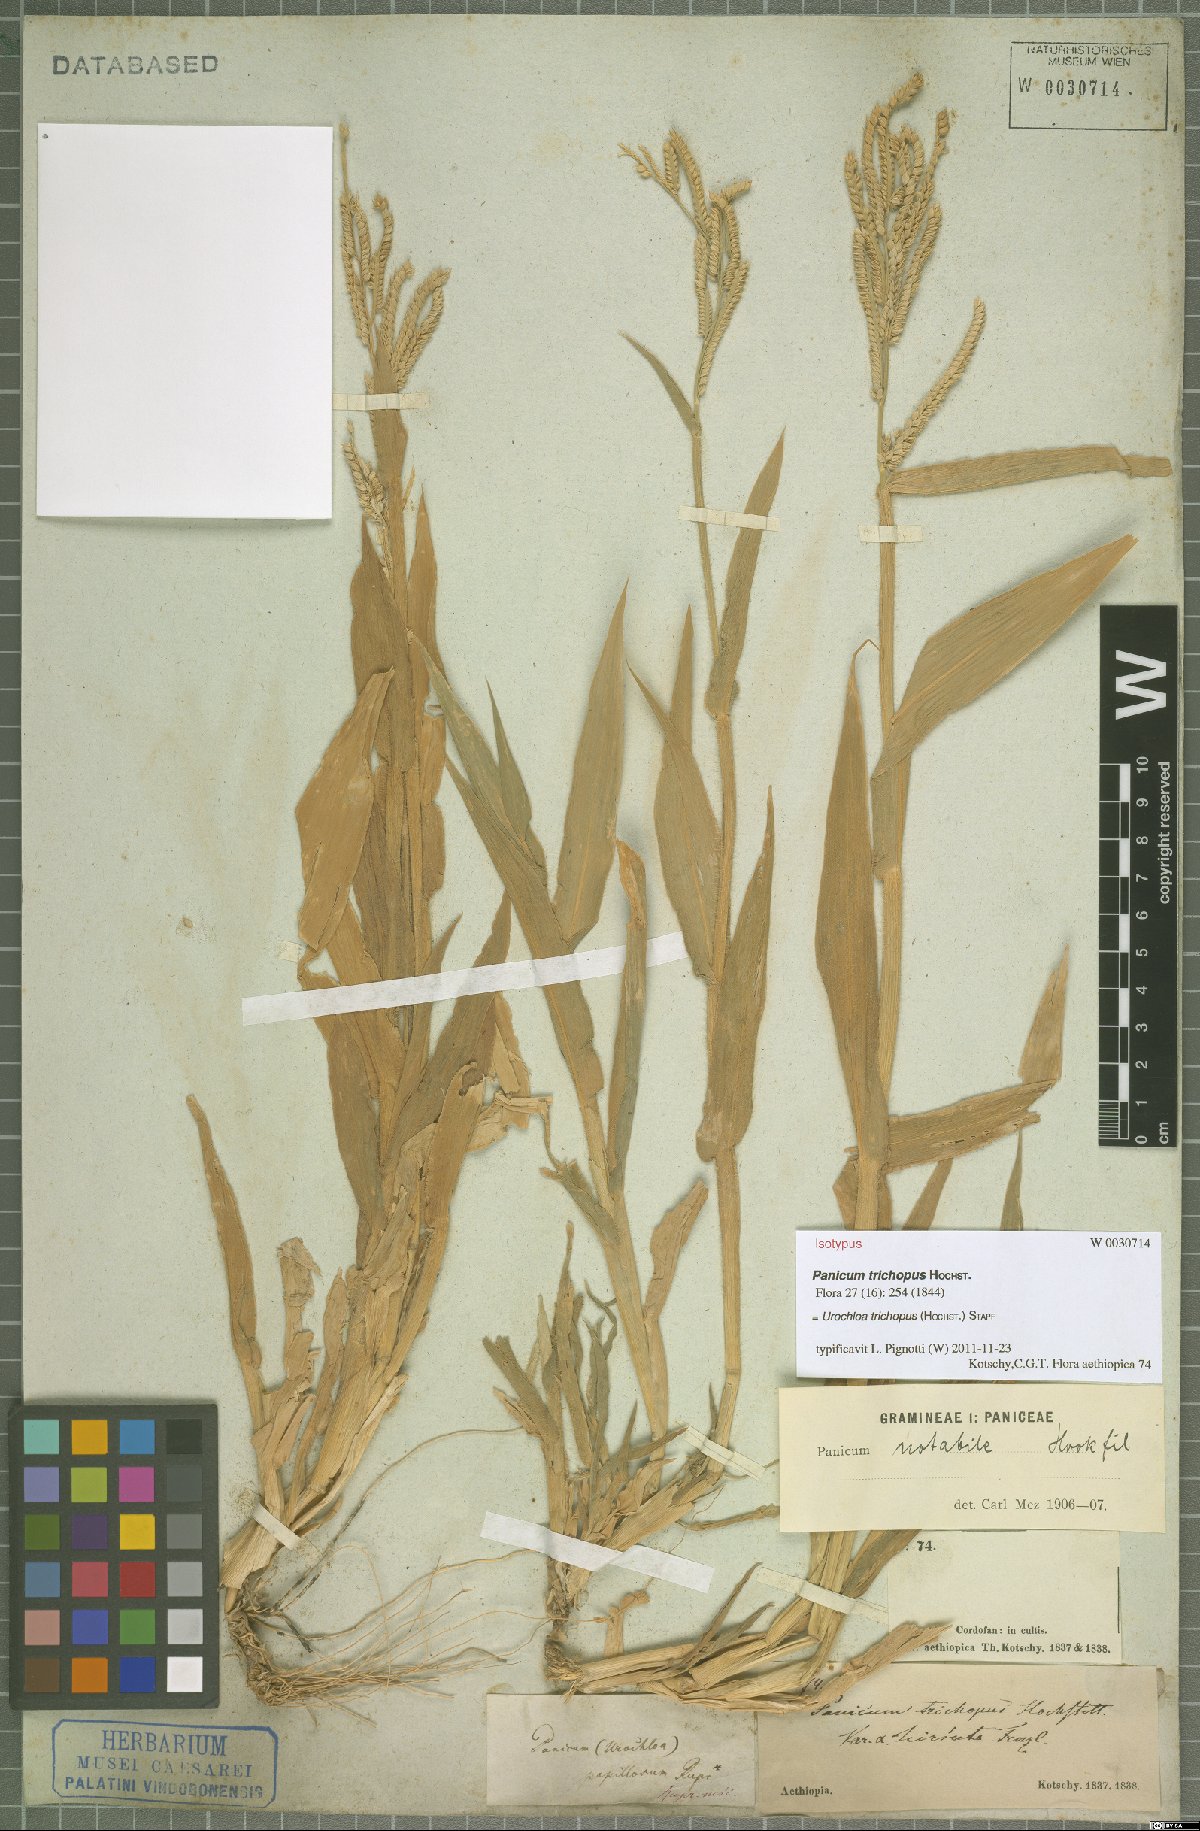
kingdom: Plantae
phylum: Tracheophyta
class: Liliopsida
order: Poales
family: Poaceae
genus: Urochloa
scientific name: Urochloa trichopus
